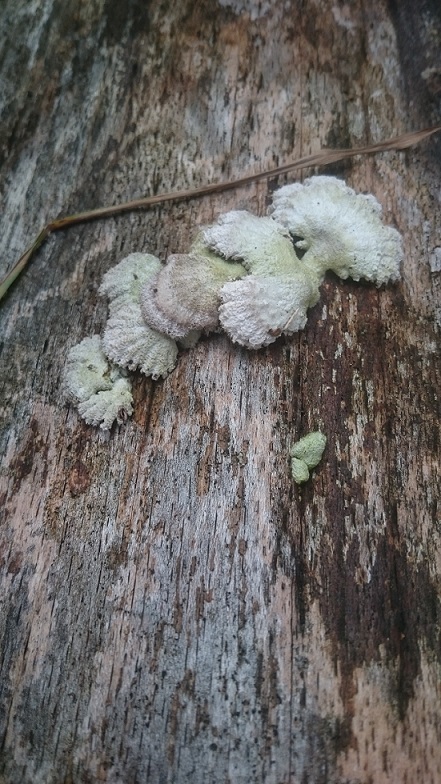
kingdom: Fungi
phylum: Basidiomycota
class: Agaricomycetes
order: Agaricales
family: Schizophyllaceae
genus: Schizophyllum
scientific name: Schizophyllum commune
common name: kløvblad
